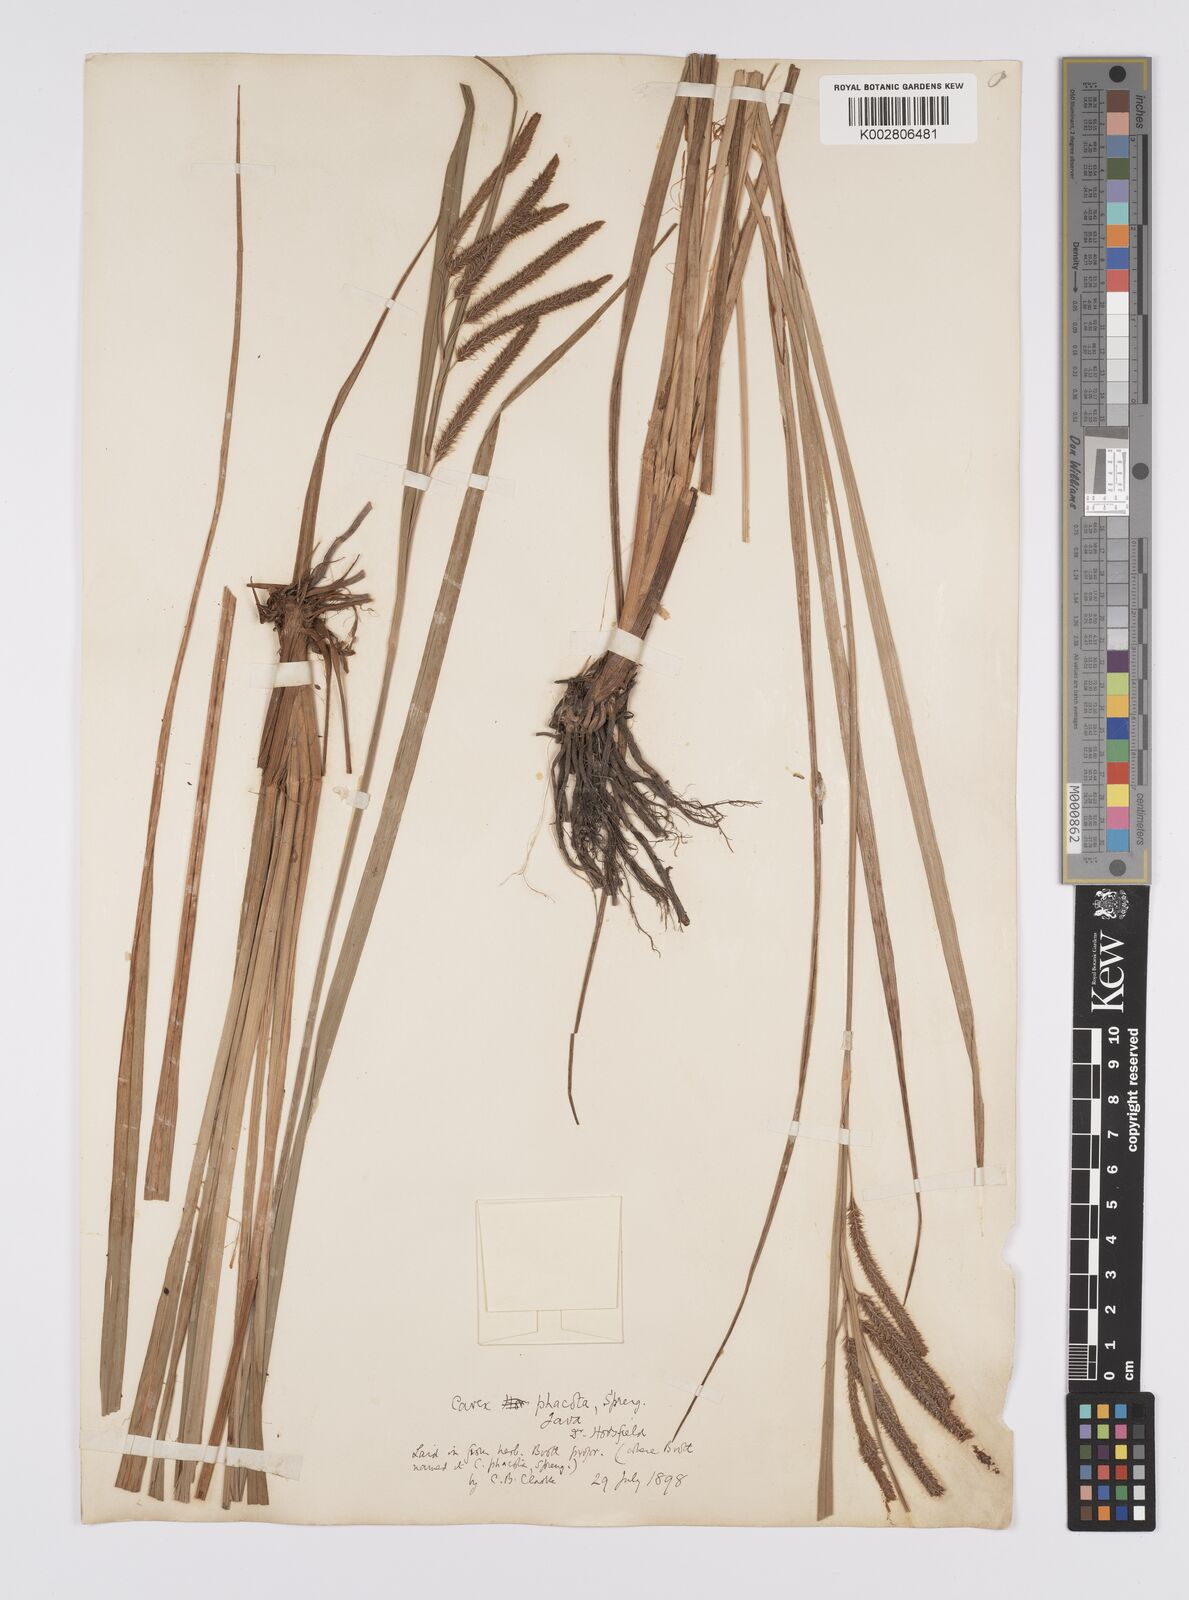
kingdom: Plantae
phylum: Tracheophyta
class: Liliopsida
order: Poales
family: Cyperaceae
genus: Carex
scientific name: Carex phacota
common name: Lakeshore sedge
